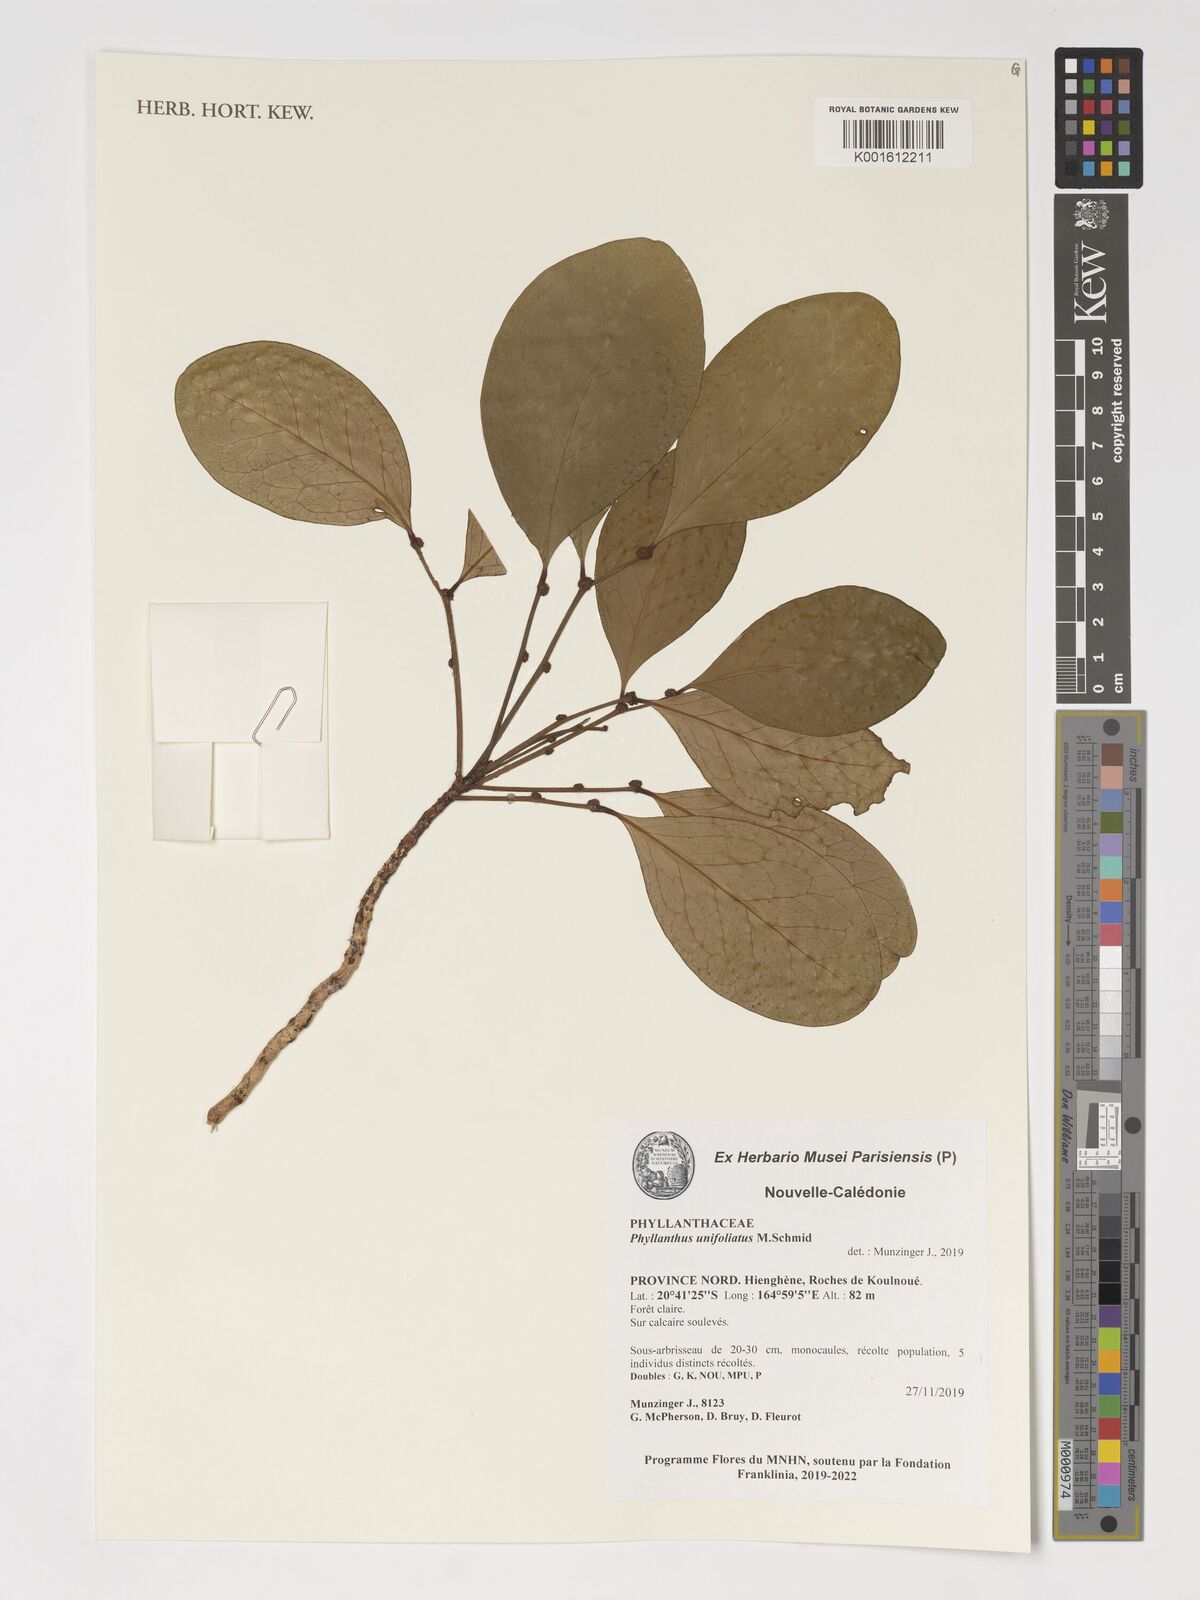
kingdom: Plantae
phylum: Tracheophyta
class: Magnoliopsida
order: Malpighiales
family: Phyllanthaceae
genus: Phyllanthus
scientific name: Phyllanthus unifoliatus
